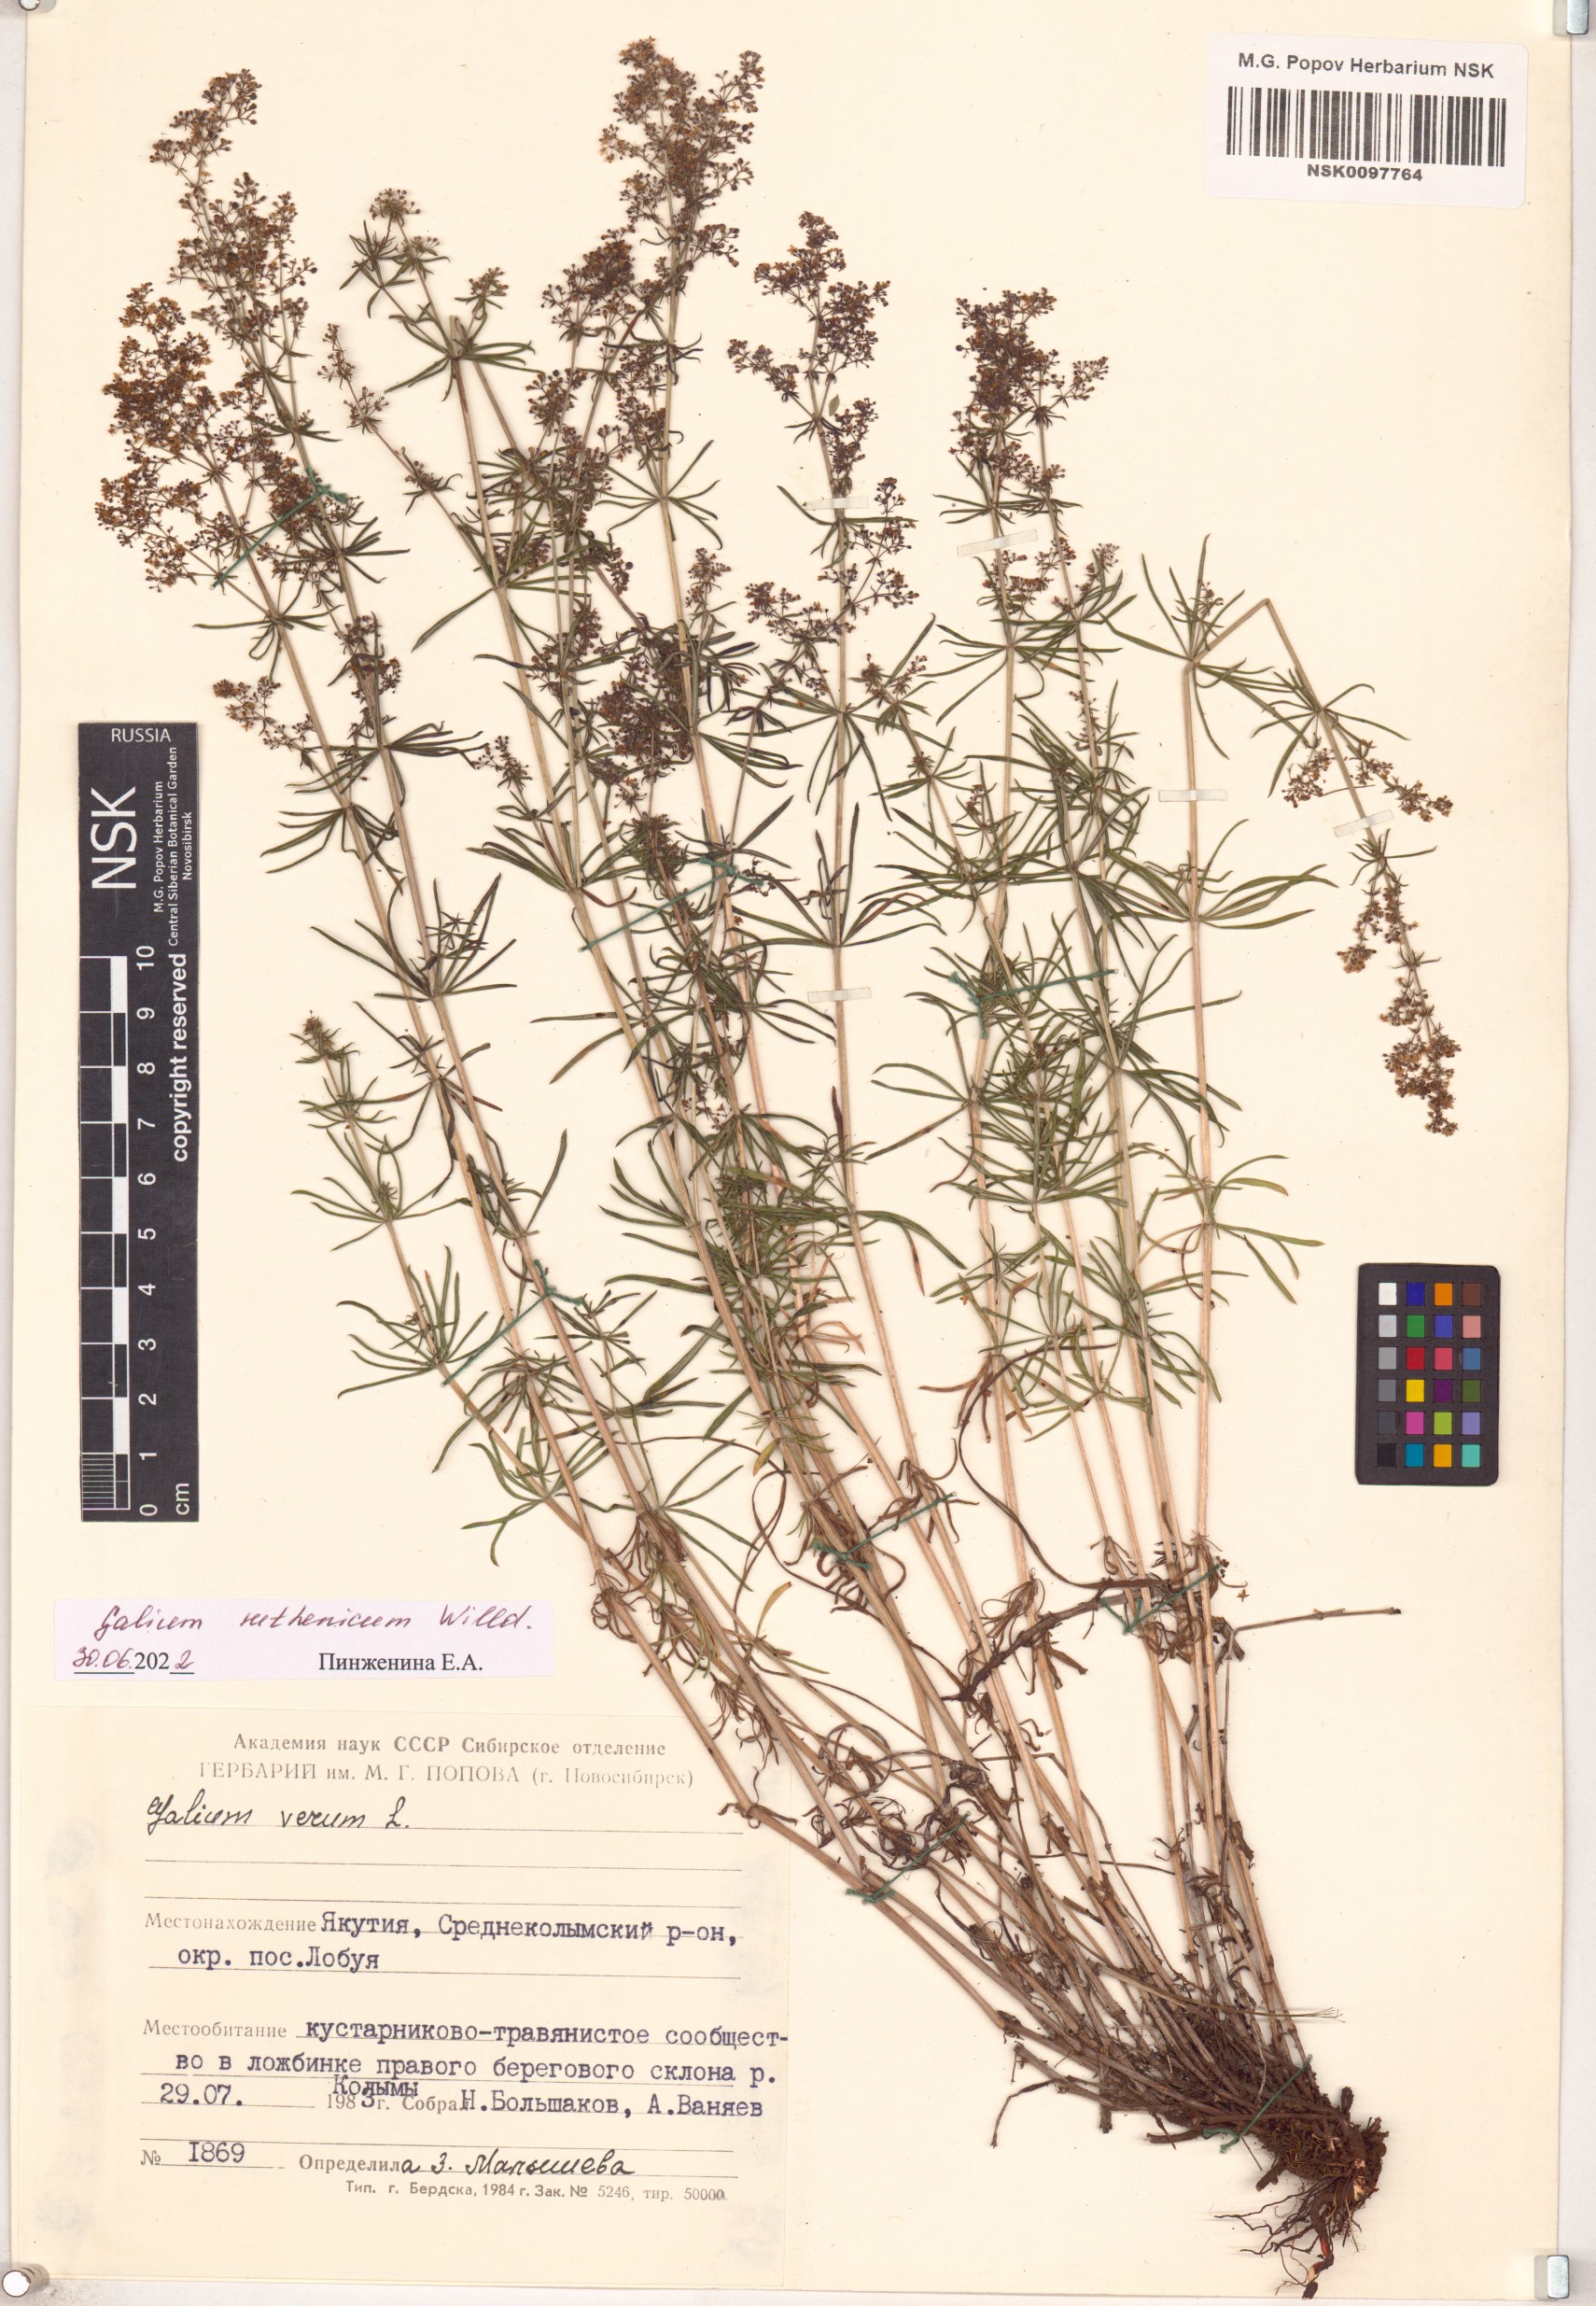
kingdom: Plantae
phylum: Tracheophyta
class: Magnoliopsida
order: Gentianales
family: Rubiaceae
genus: Galium
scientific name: Galium verum
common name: Lady's bedstraw
